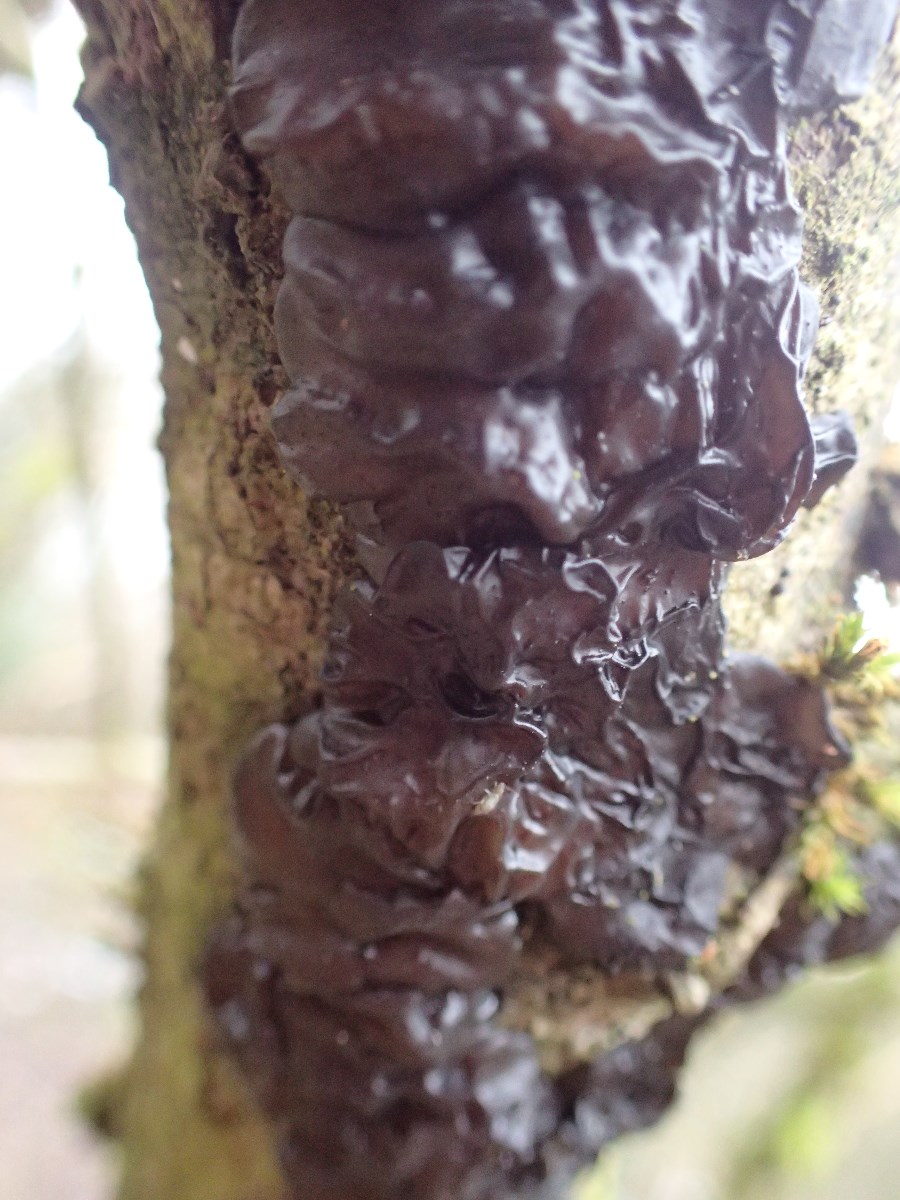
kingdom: Fungi
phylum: Basidiomycota
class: Agaricomycetes
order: Auriculariales
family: Auriculariaceae
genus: Exidia
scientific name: Exidia nigricans
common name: almindelig bævretop
